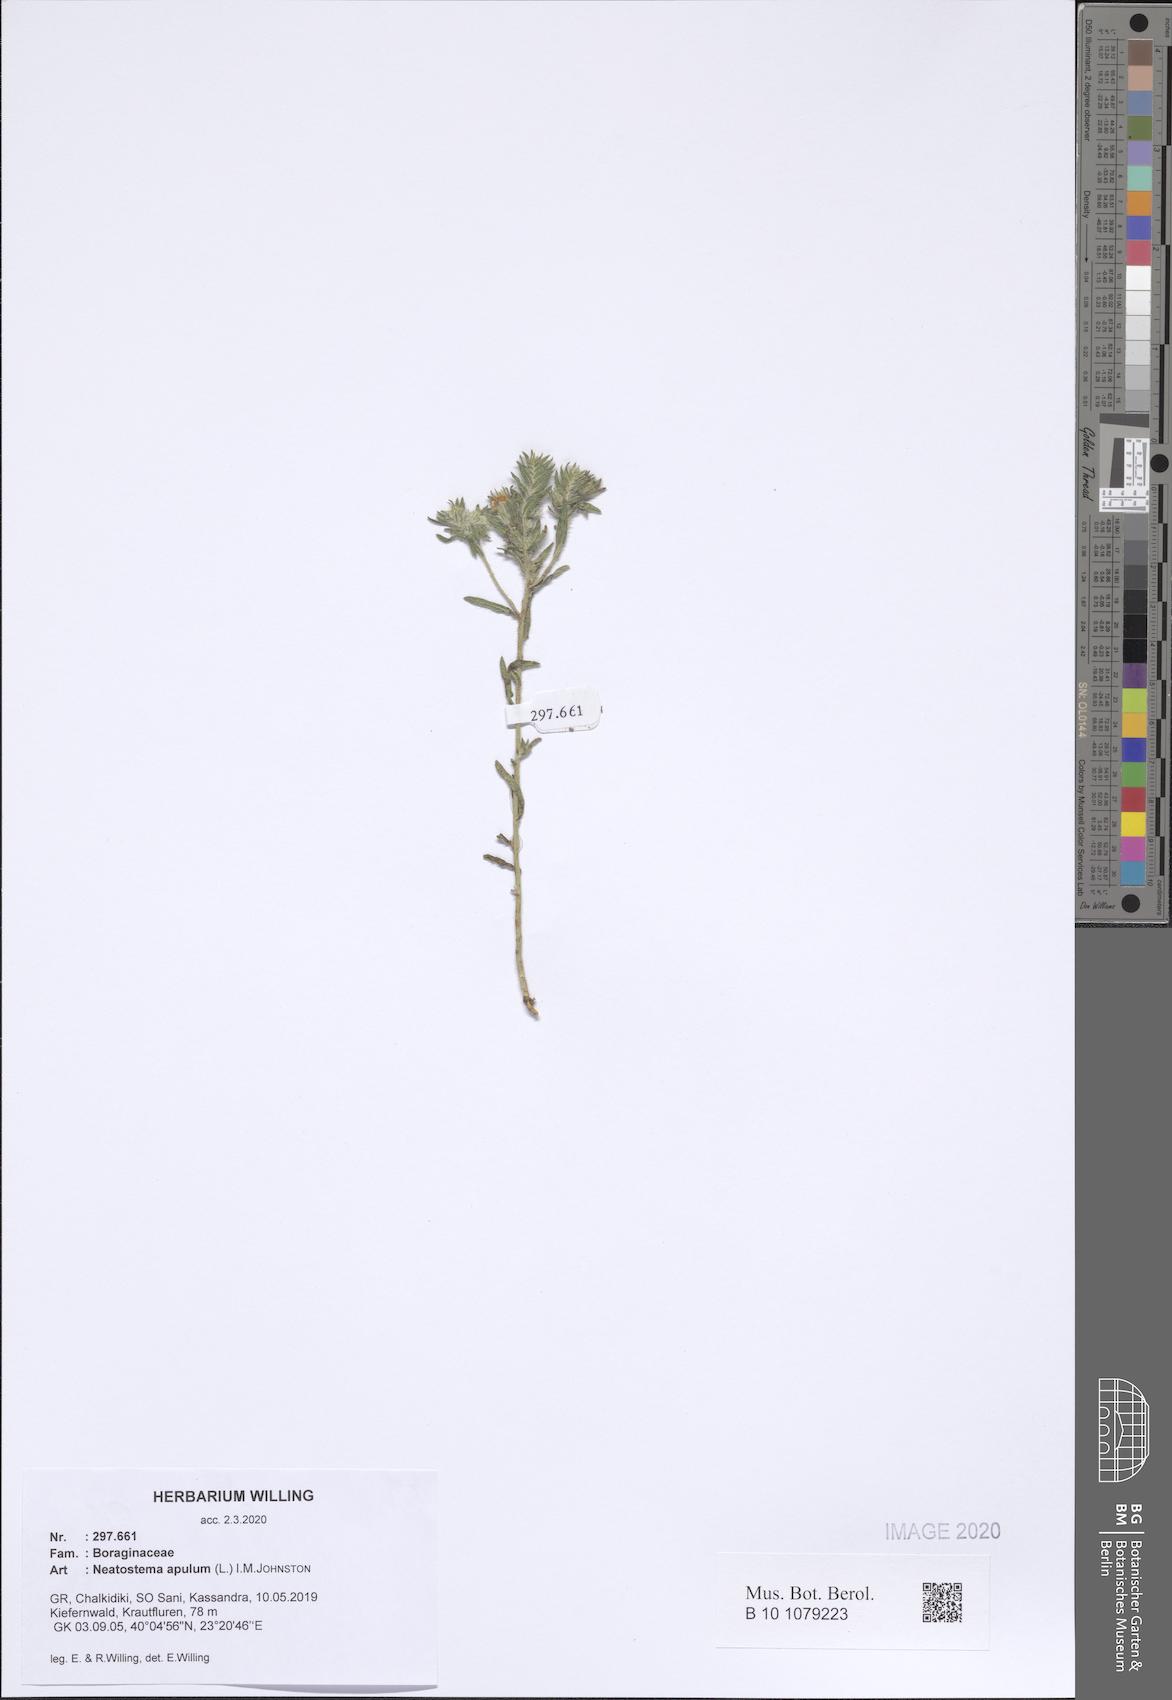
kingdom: Plantae
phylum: Tracheophyta
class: Magnoliopsida
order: Boraginales
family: Boraginaceae
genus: Neatostema
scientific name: Neatostema apulum
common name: Hairy sheepweed
